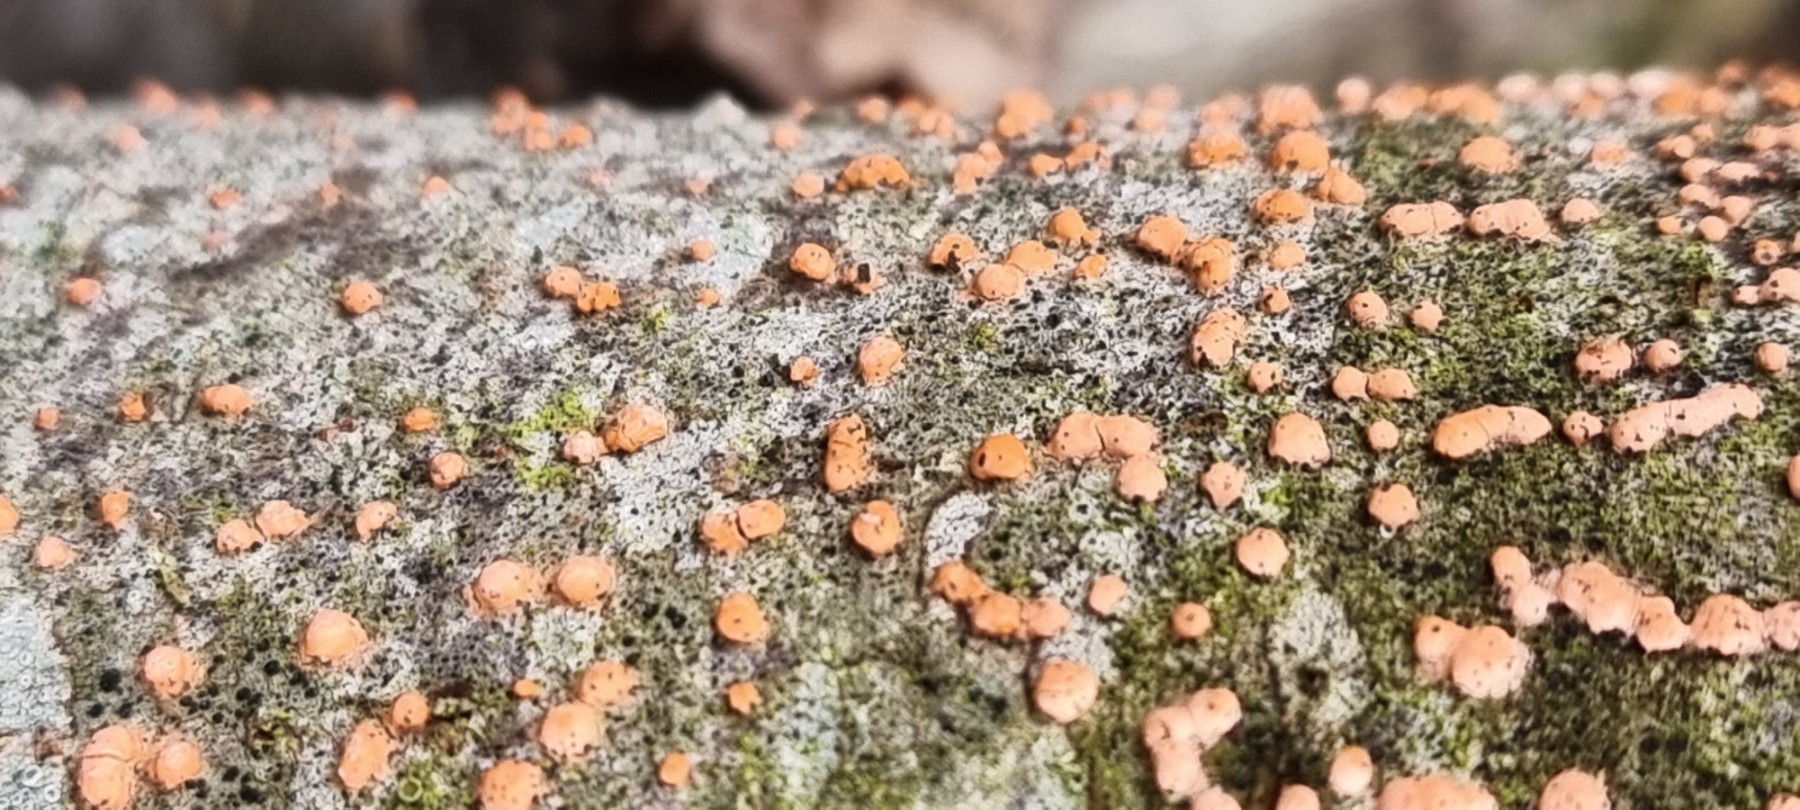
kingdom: Fungi
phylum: Ascomycota
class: Sordariomycetes
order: Hypocreales
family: Nectriaceae
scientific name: Nectriaceae
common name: cinnobersvampfamilien
